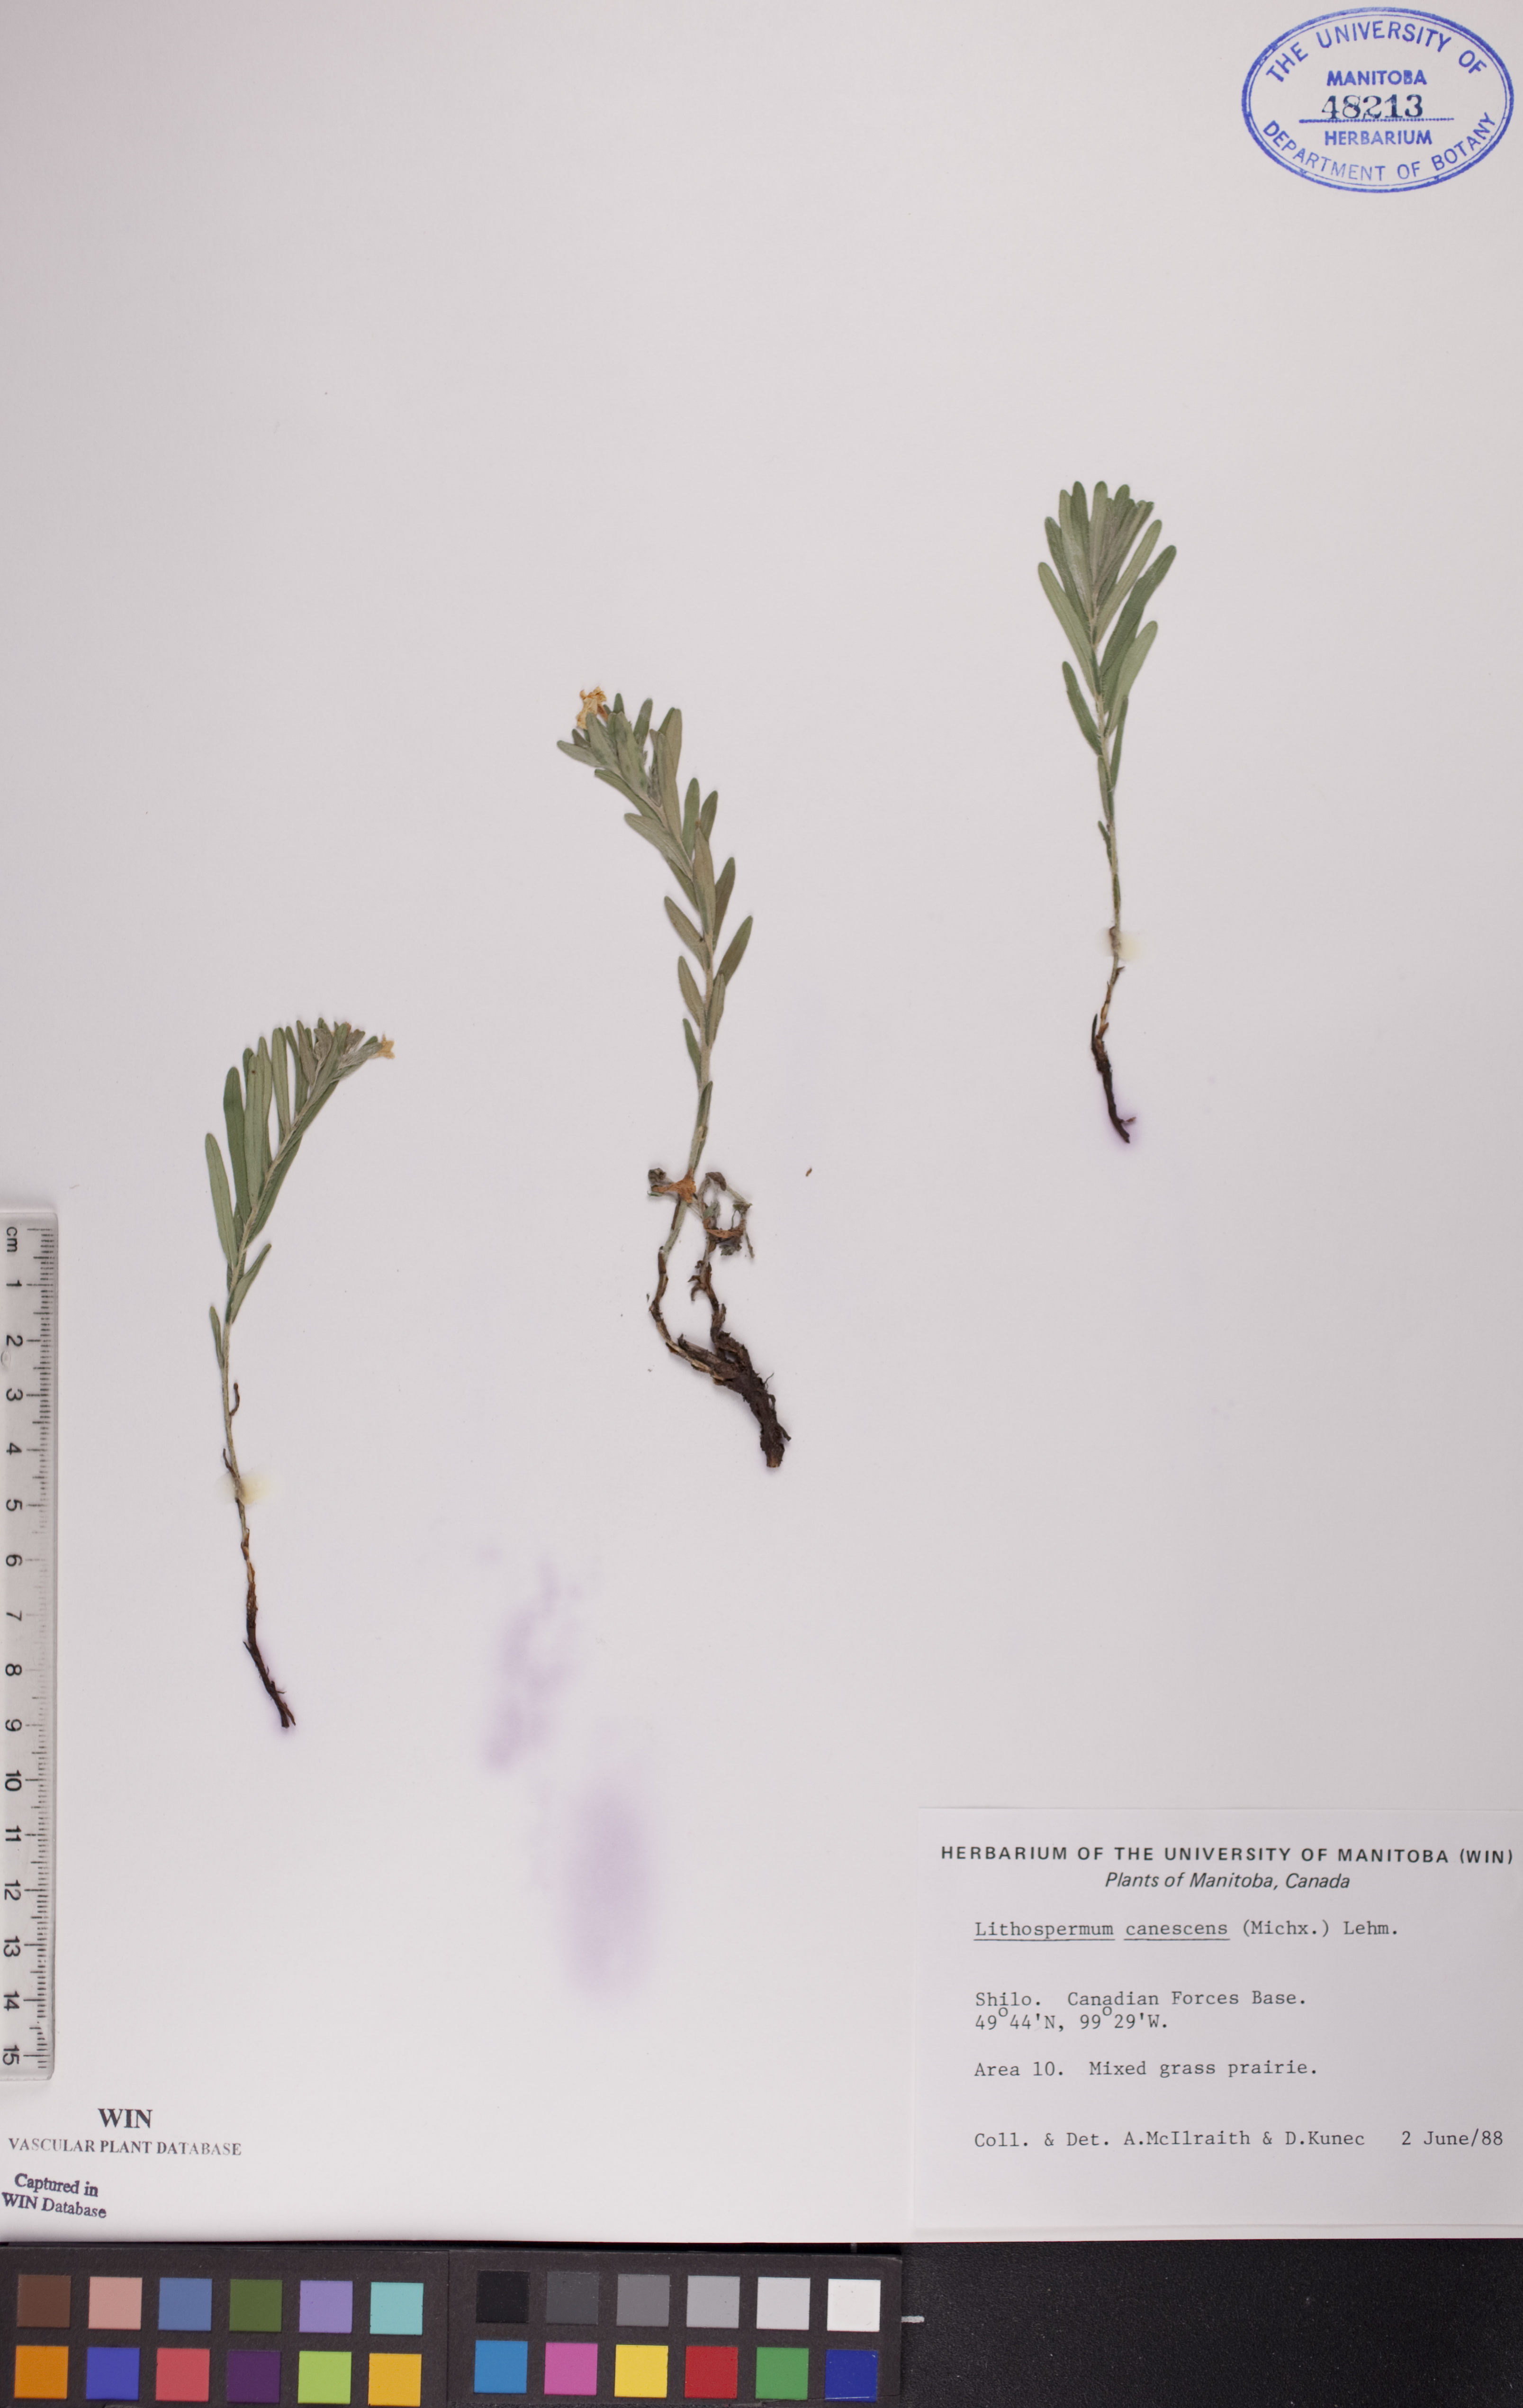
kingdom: Plantae
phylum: Tracheophyta
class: Magnoliopsida
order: Boraginales
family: Boraginaceae
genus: Lithospermum
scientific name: Lithospermum canescens
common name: Hoary puccoon
